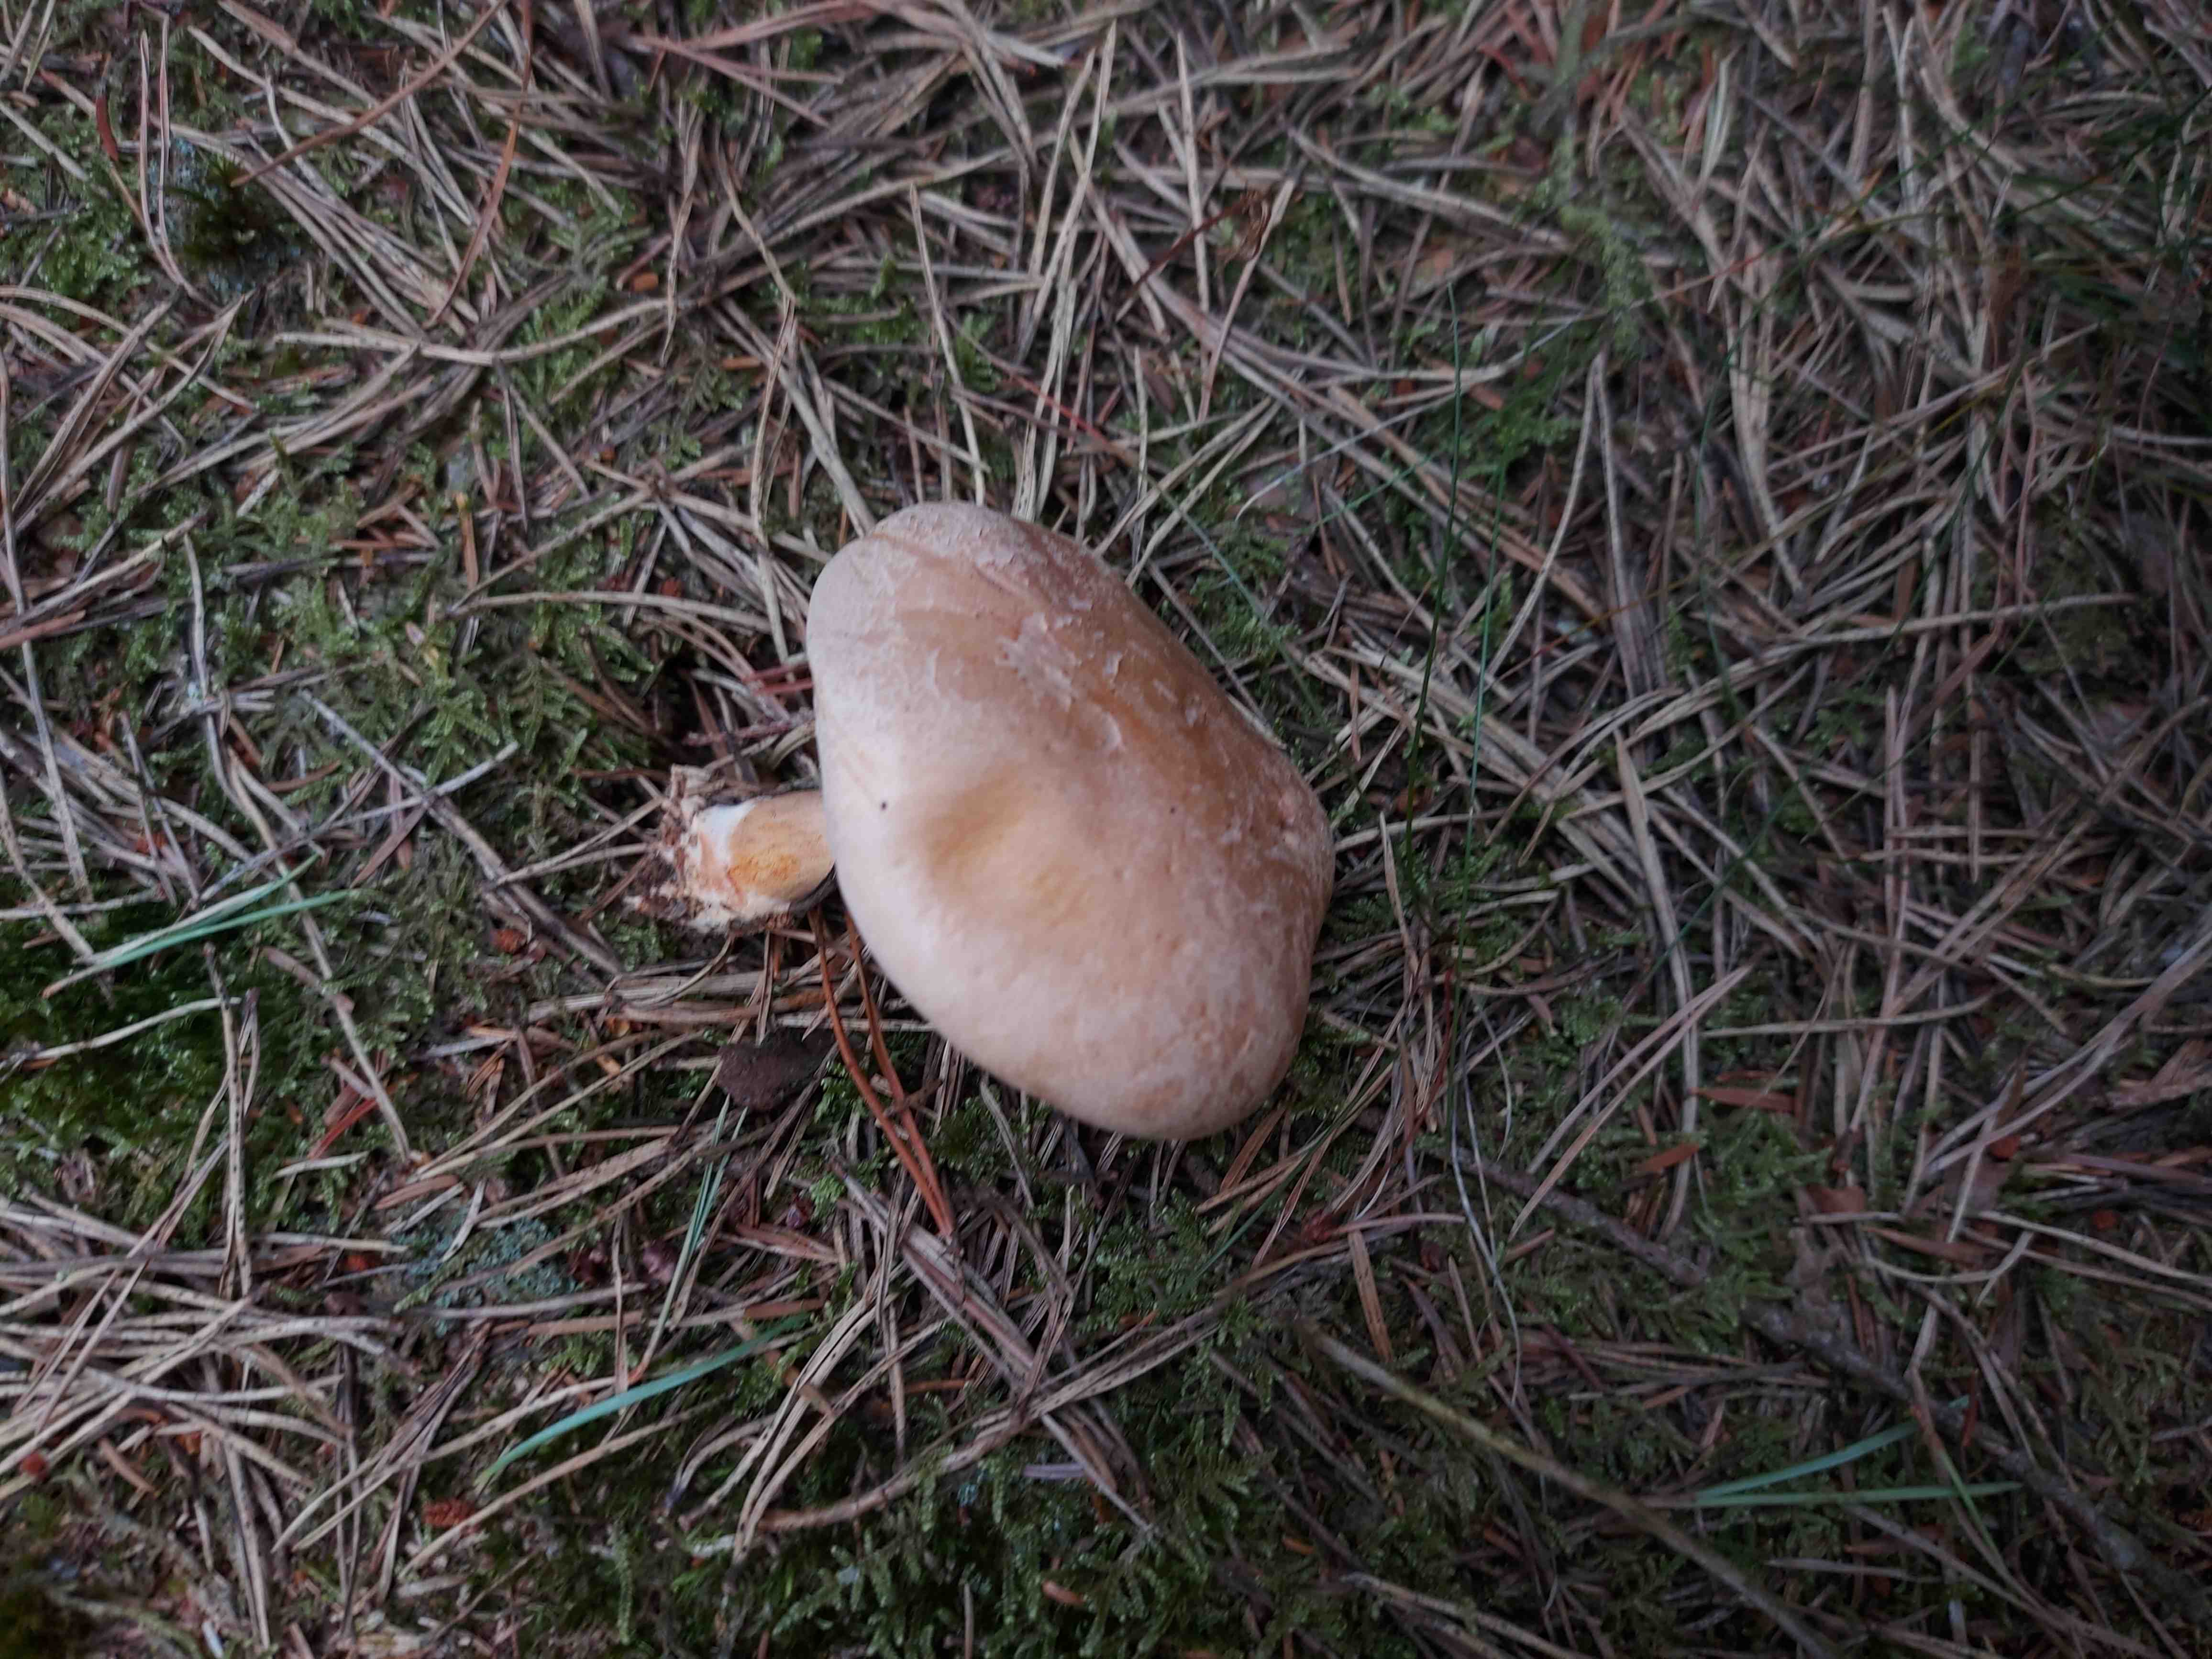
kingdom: Fungi
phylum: Basidiomycota
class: Agaricomycetes
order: Boletales
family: Suillaceae
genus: Suillus
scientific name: Suillus bovinus
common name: grovporet slimrørhat
